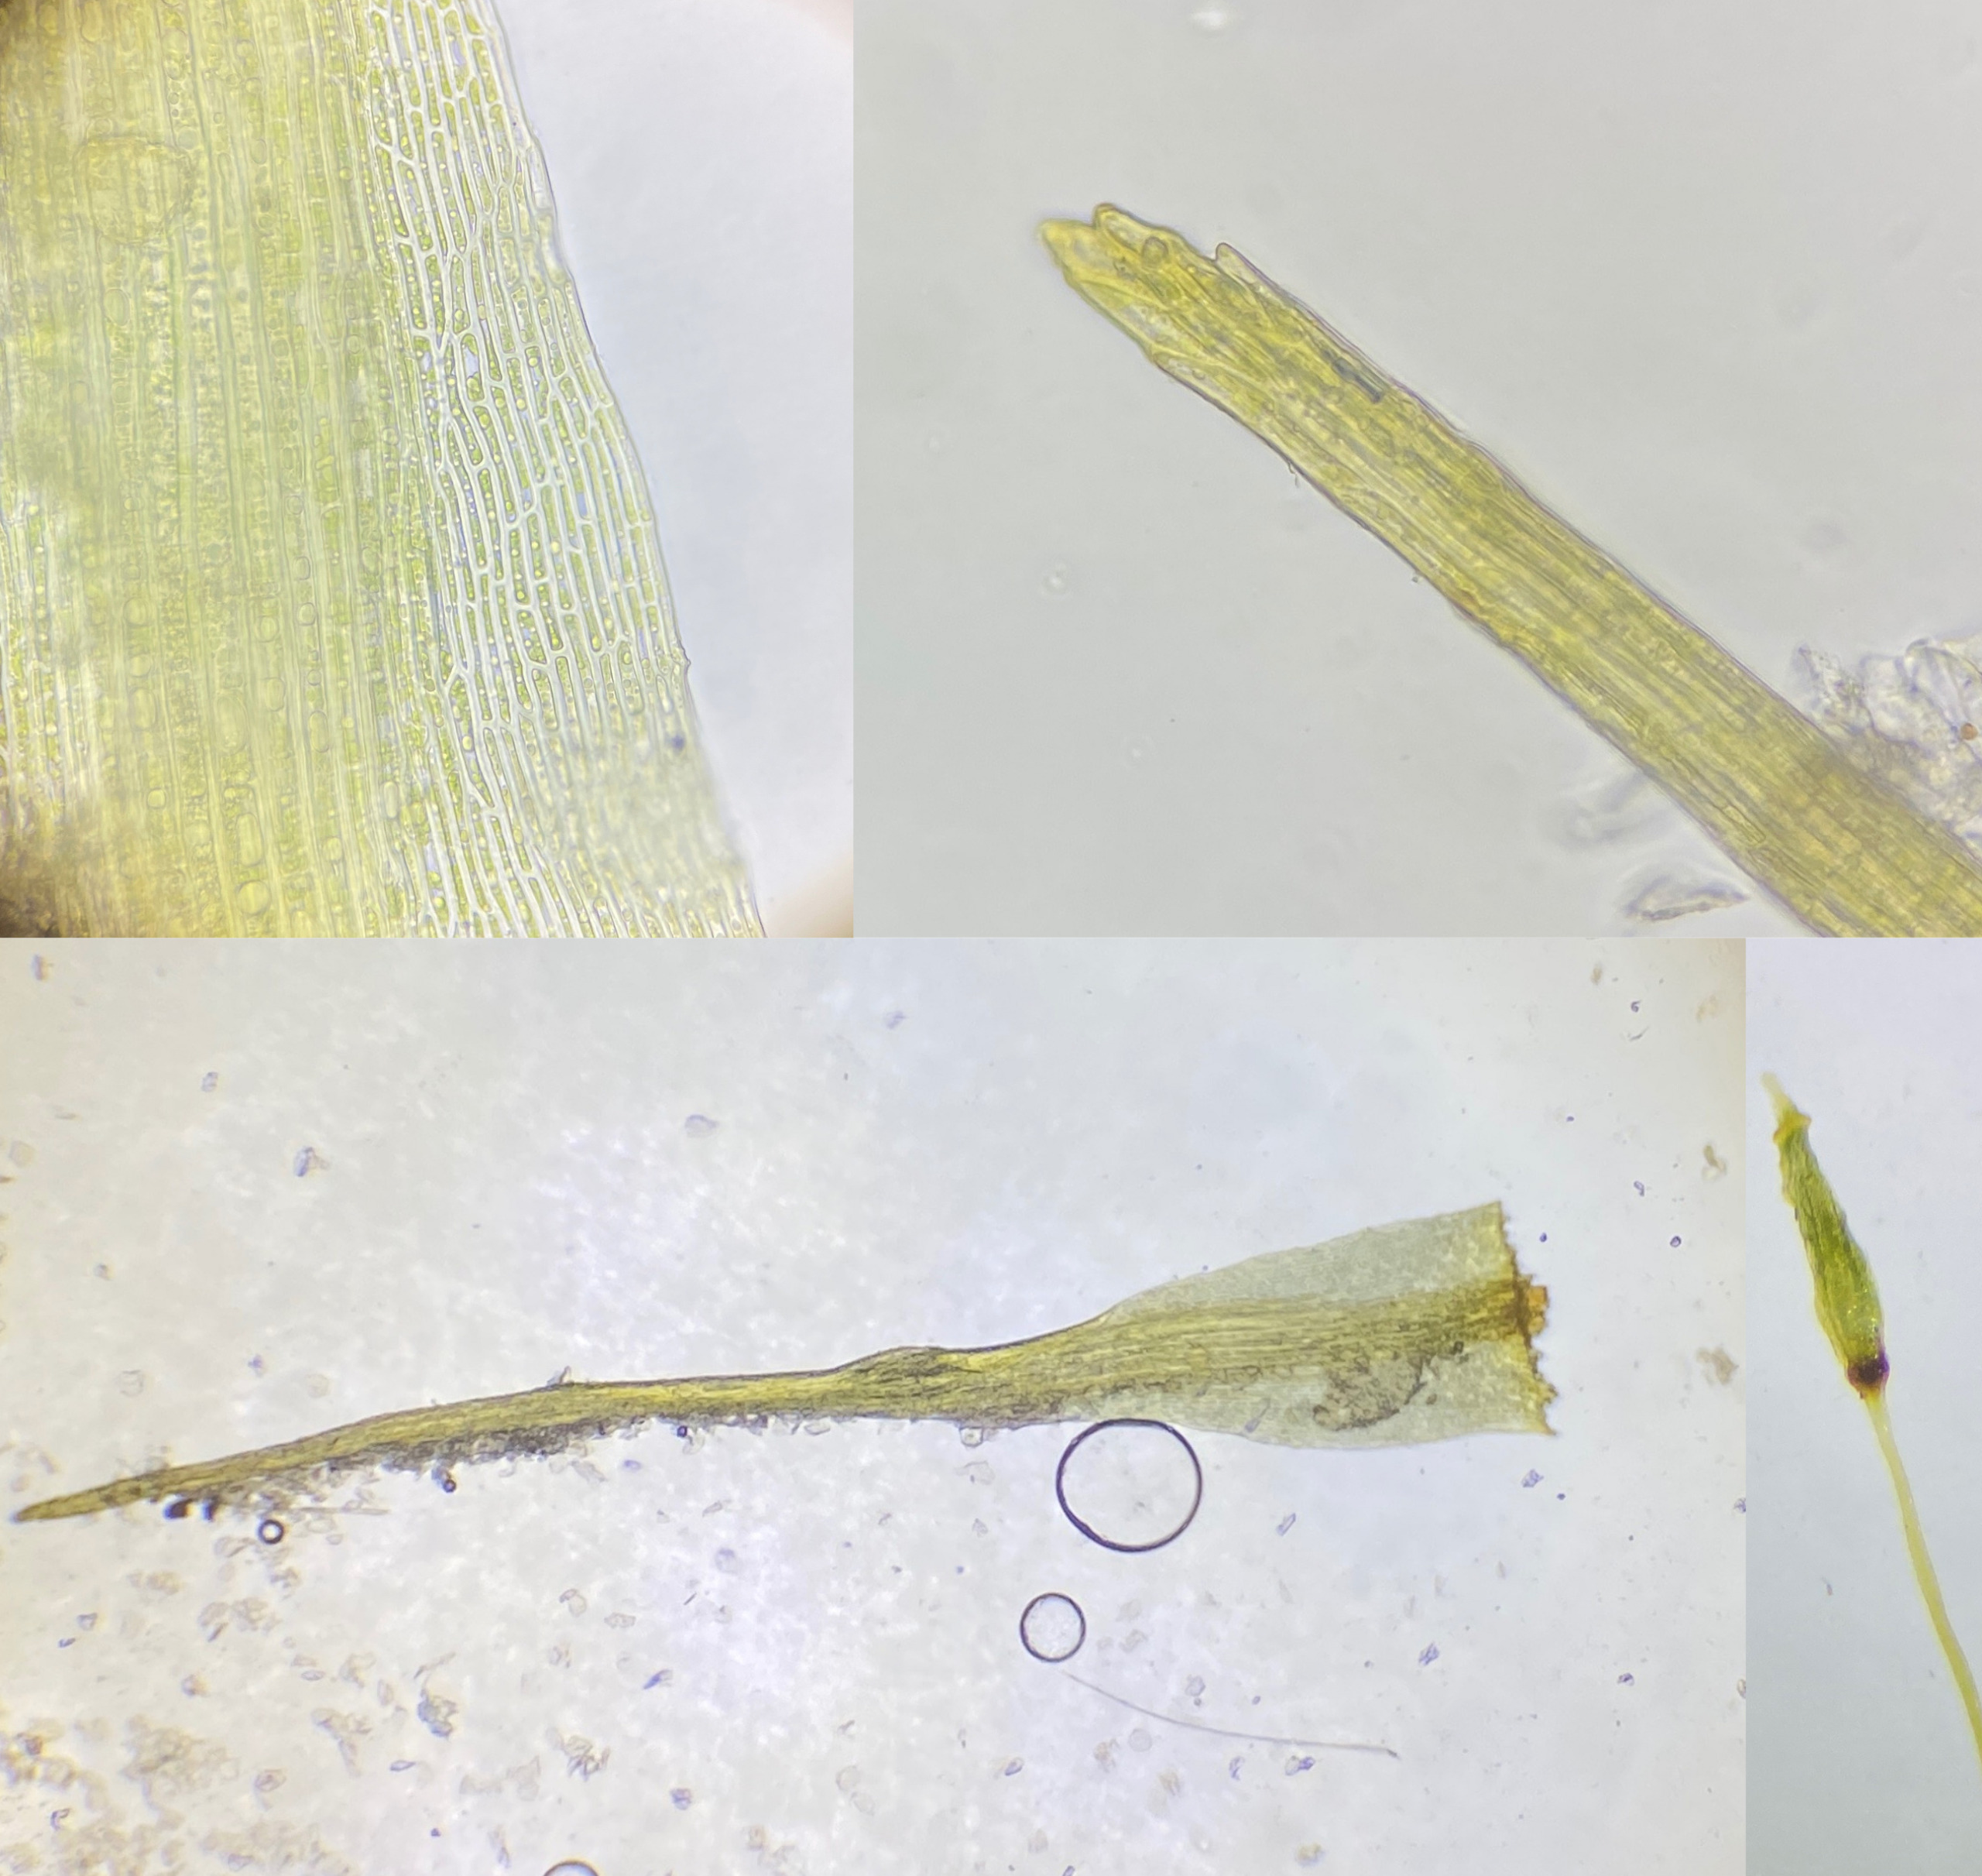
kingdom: Plantae
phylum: Bryophyta
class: Bryopsida
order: Dicranales
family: Ditrichaceae
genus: Ditrichum
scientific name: Ditrichum heteromallum
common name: Ensidig hårtand
